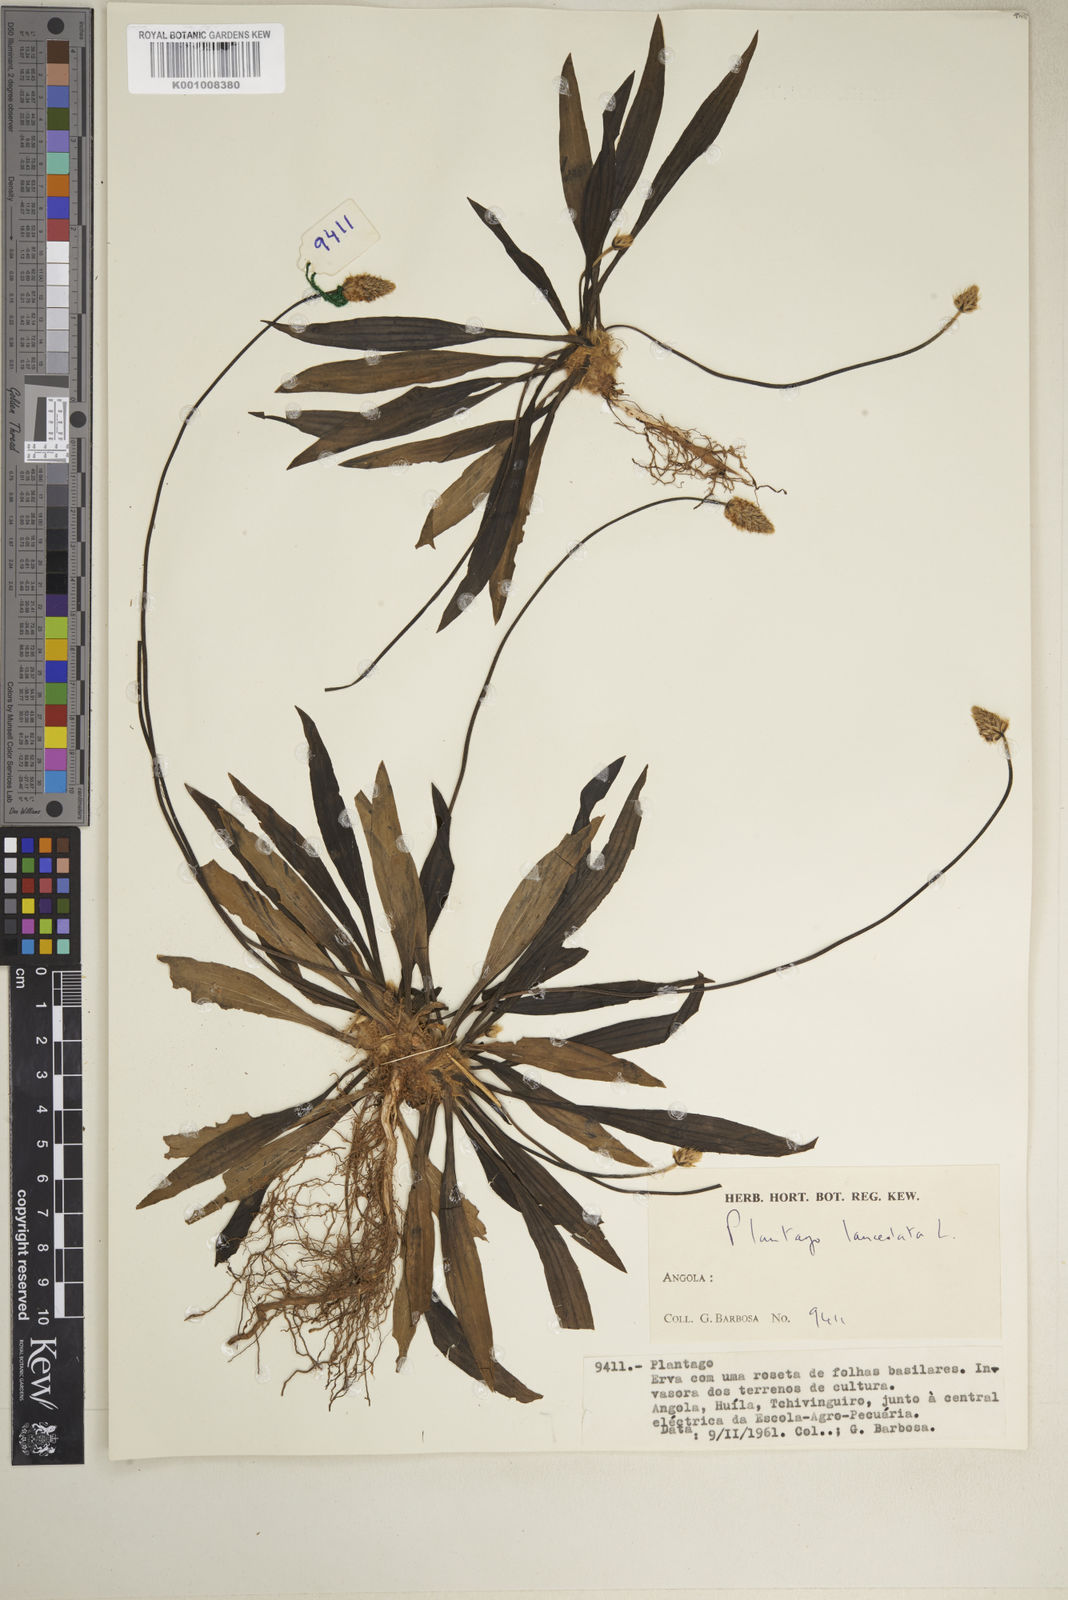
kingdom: Plantae
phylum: Tracheophyta
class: Magnoliopsida
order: Lamiales
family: Plantaginaceae
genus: Plantago
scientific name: Plantago lanceolata
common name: Ribwort plantain
